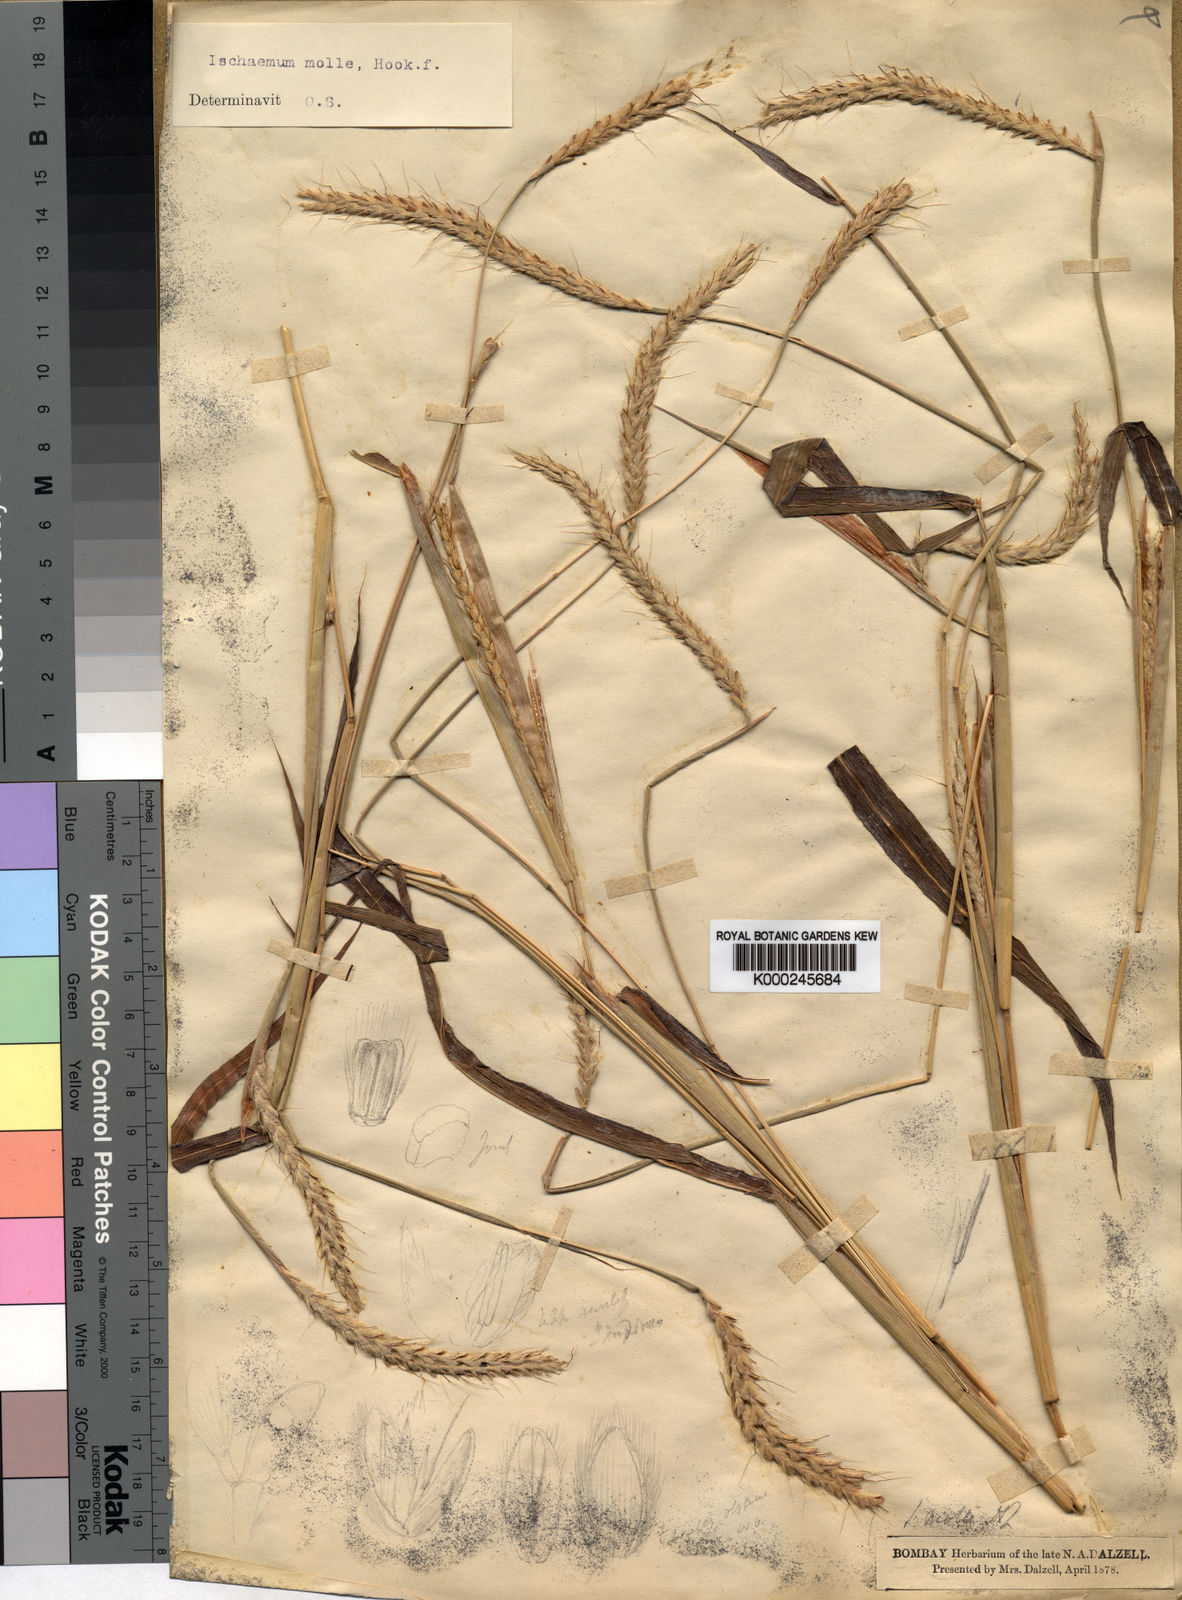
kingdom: Plantae
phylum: Tracheophyta
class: Liliopsida
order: Poales
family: Poaceae
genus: Ischaemum
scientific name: Ischaemum molle
